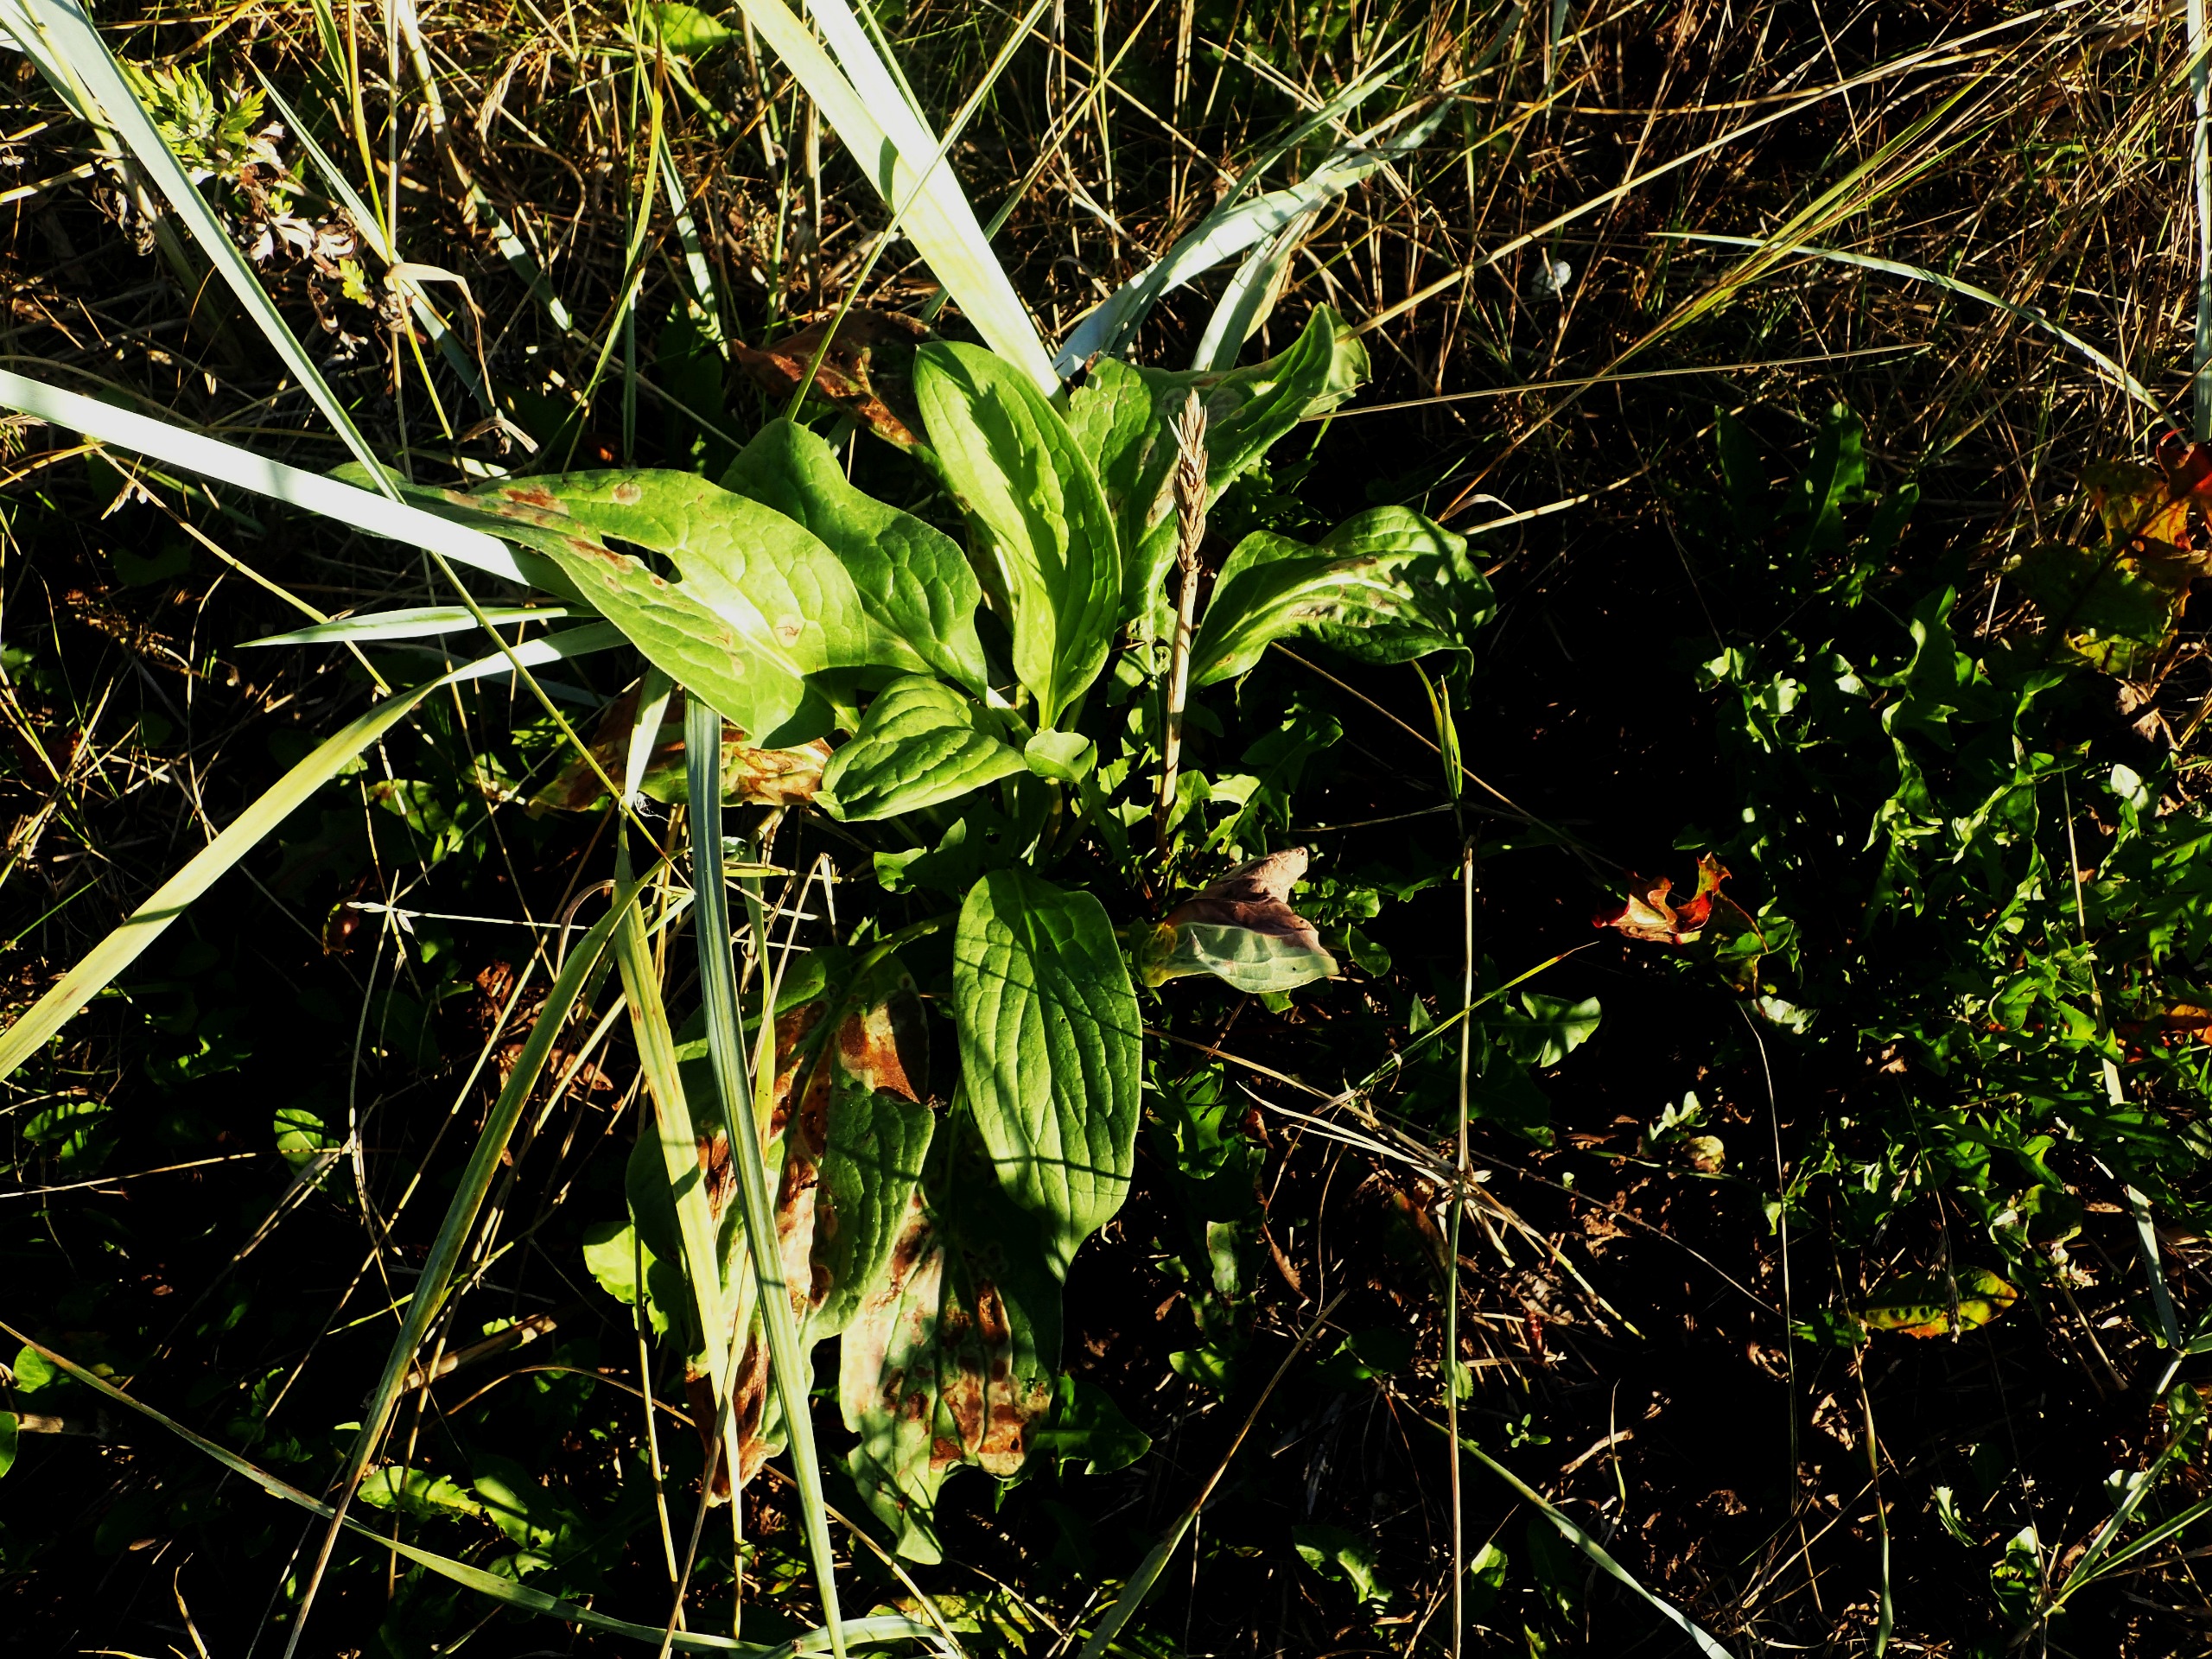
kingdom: Plantae
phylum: Tracheophyta
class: Magnoliopsida
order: Boraginales
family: Boraginaceae
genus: Cynoglossum
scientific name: Cynoglossum officinale
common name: Hundetunge
